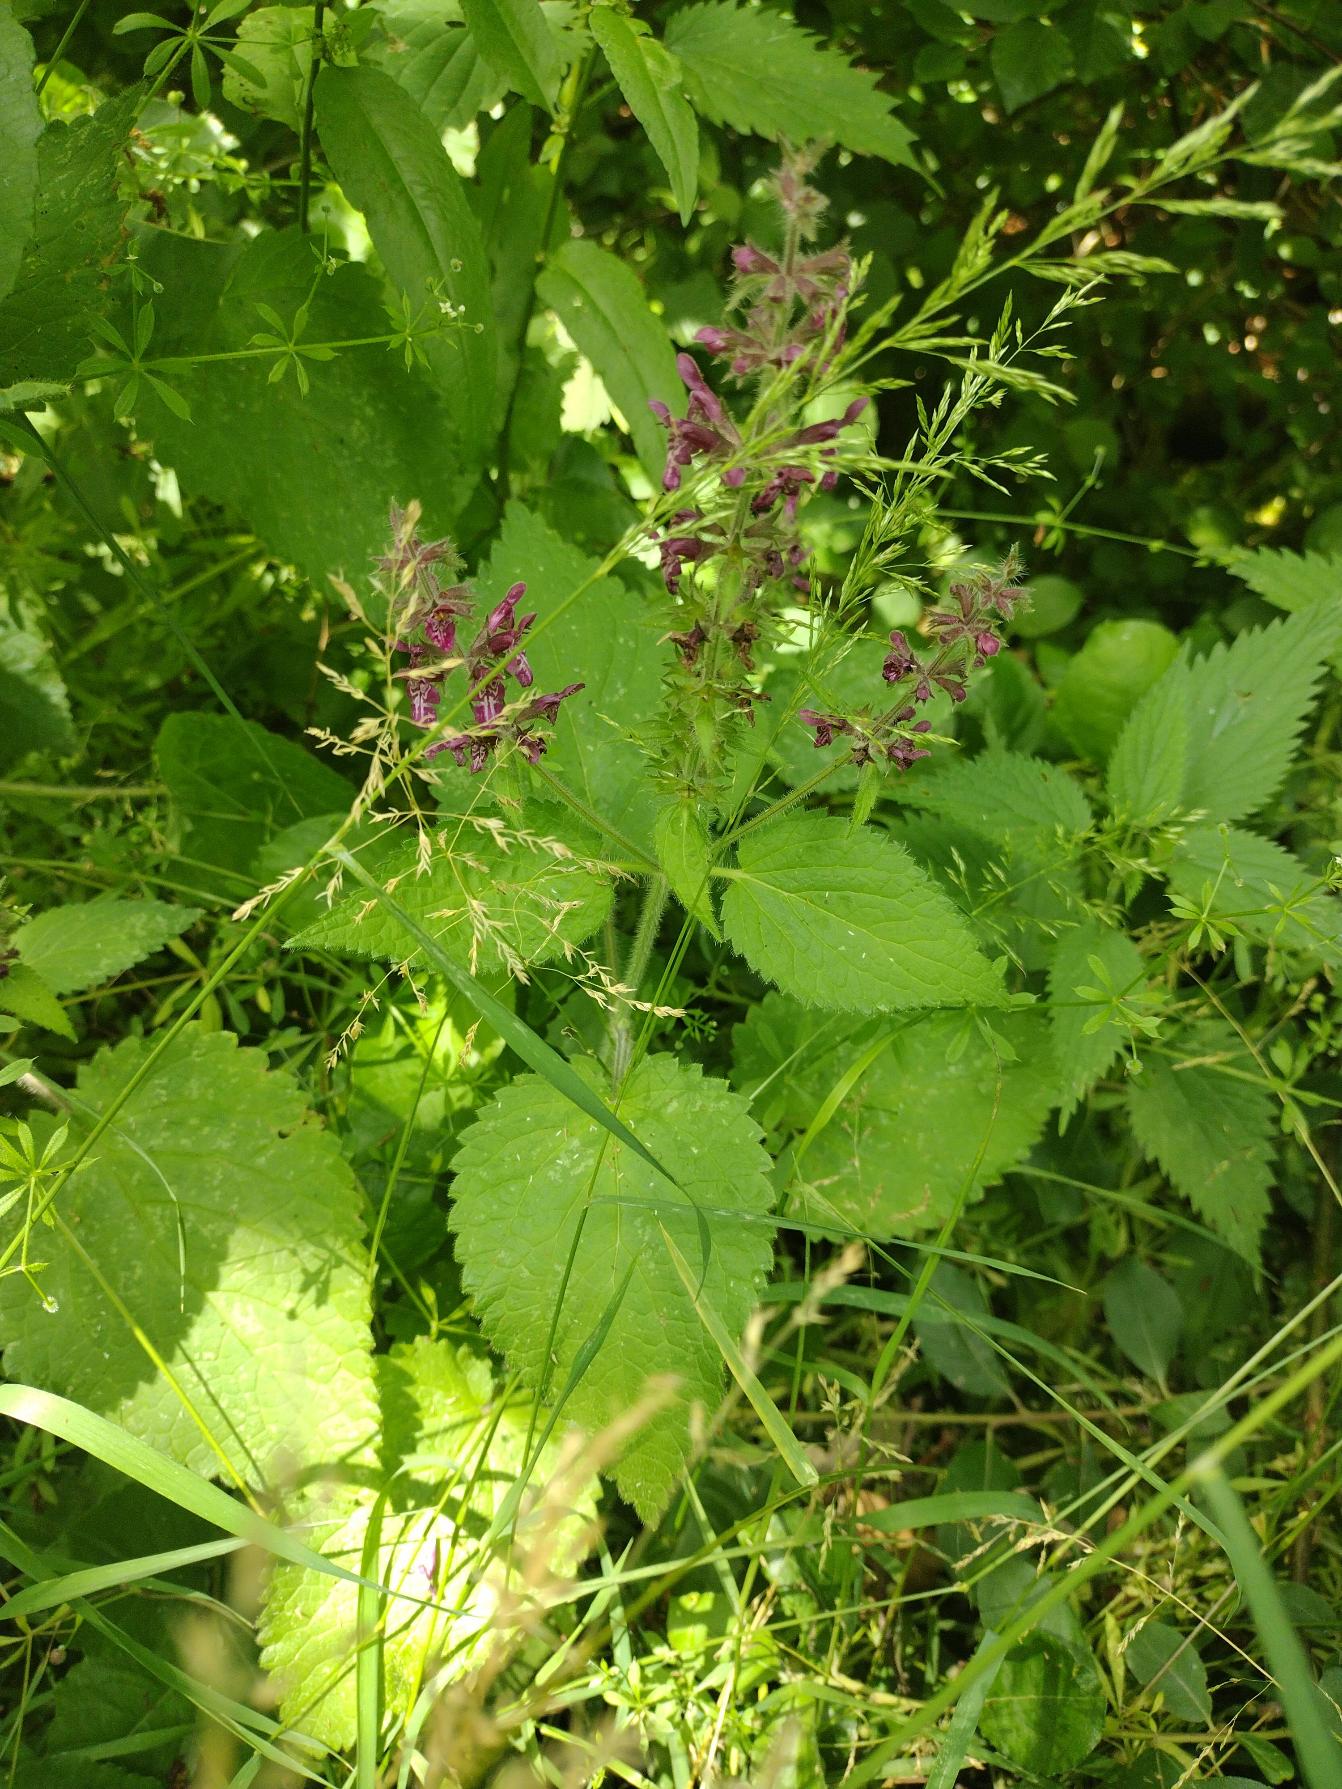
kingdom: Plantae
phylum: Tracheophyta
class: Magnoliopsida
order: Lamiales
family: Lamiaceae
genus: Stachys
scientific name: Stachys sylvatica
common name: Skov-galtetand
